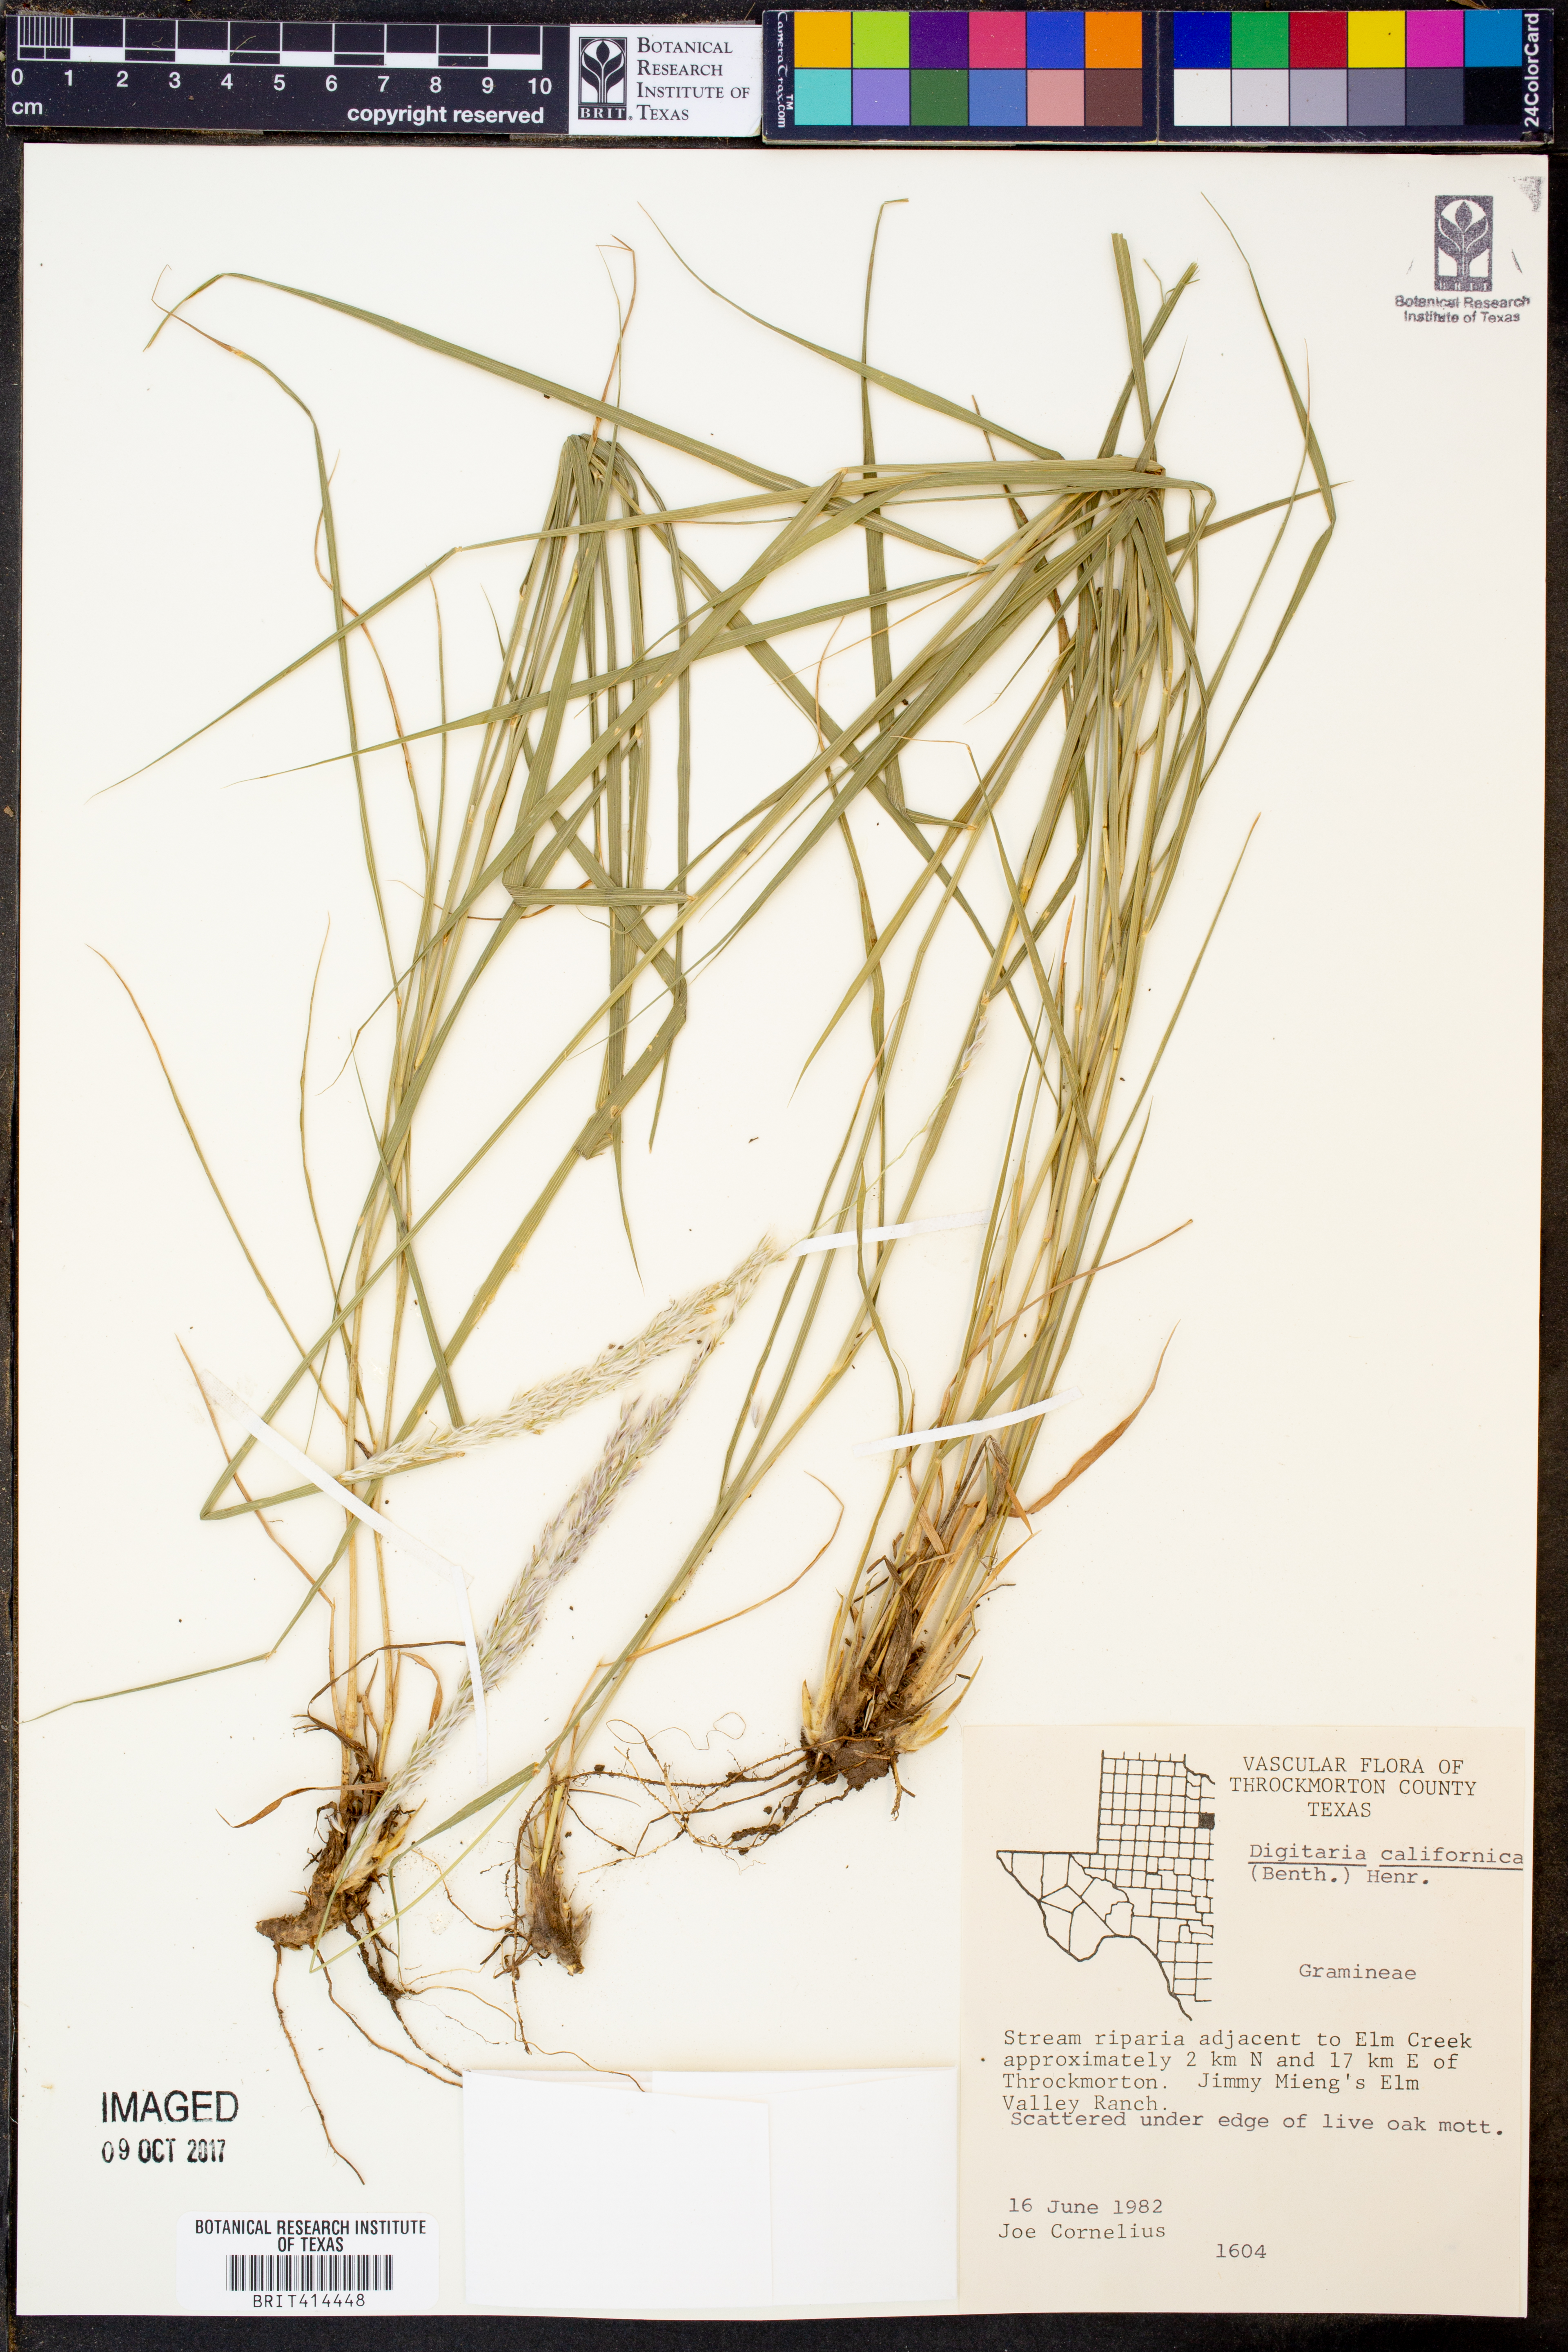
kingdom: Plantae
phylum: Tracheophyta
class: Liliopsida
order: Poales
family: Poaceae
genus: Digitaria
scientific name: Digitaria californica
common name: Arizona cottontop
